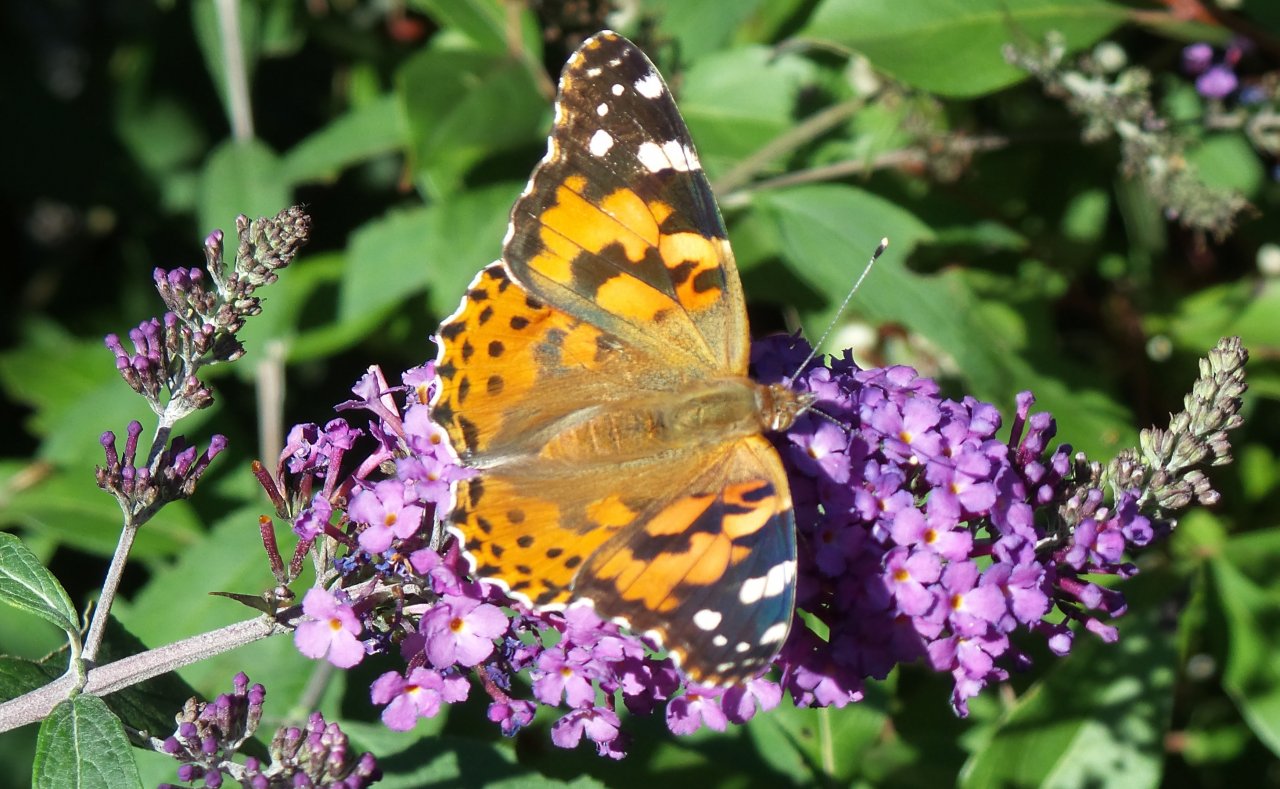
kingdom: Animalia
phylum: Arthropoda
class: Insecta
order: Lepidoptera
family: Nymphalidae
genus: Vanessa
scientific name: Vanessa cardui
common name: Painted Lady
